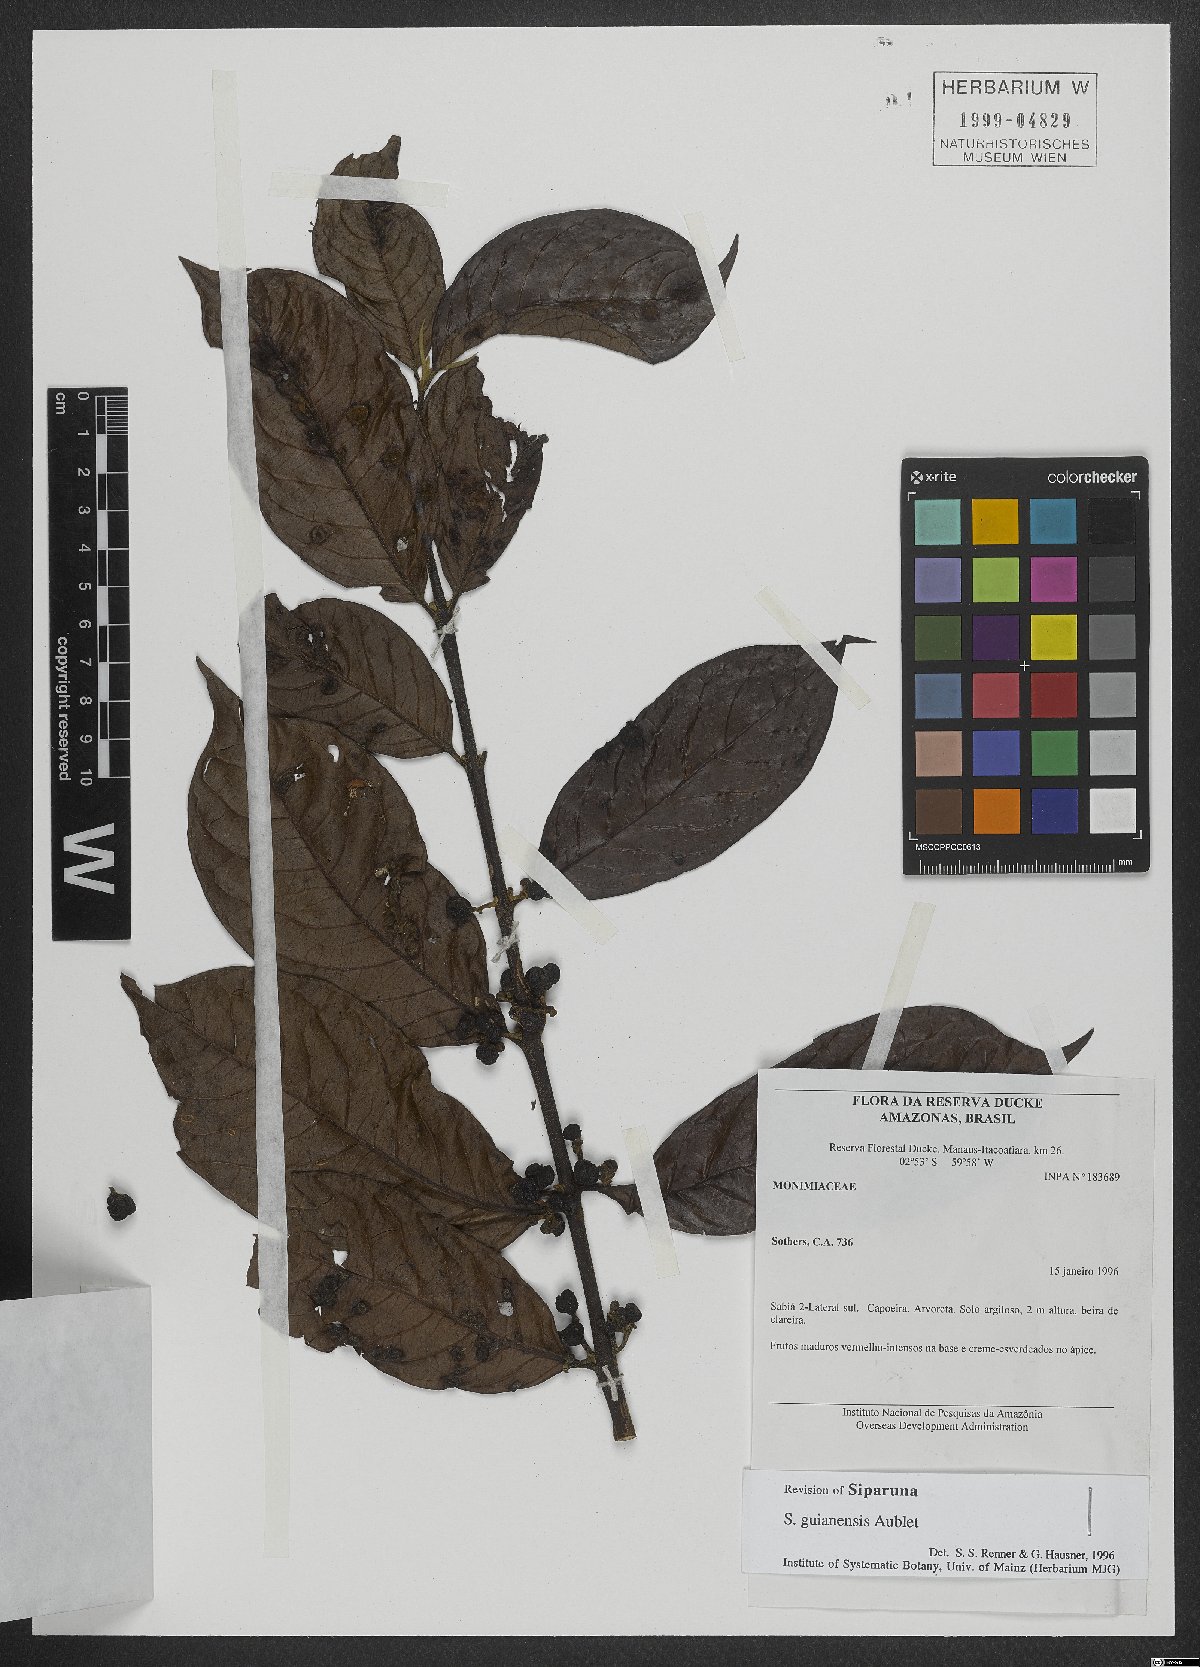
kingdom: Plantae
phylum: Tracheophyta
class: Magnoliopsida
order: Laurales
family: Siparunaceae
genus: Siparuna
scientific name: Siparuna guianensis
